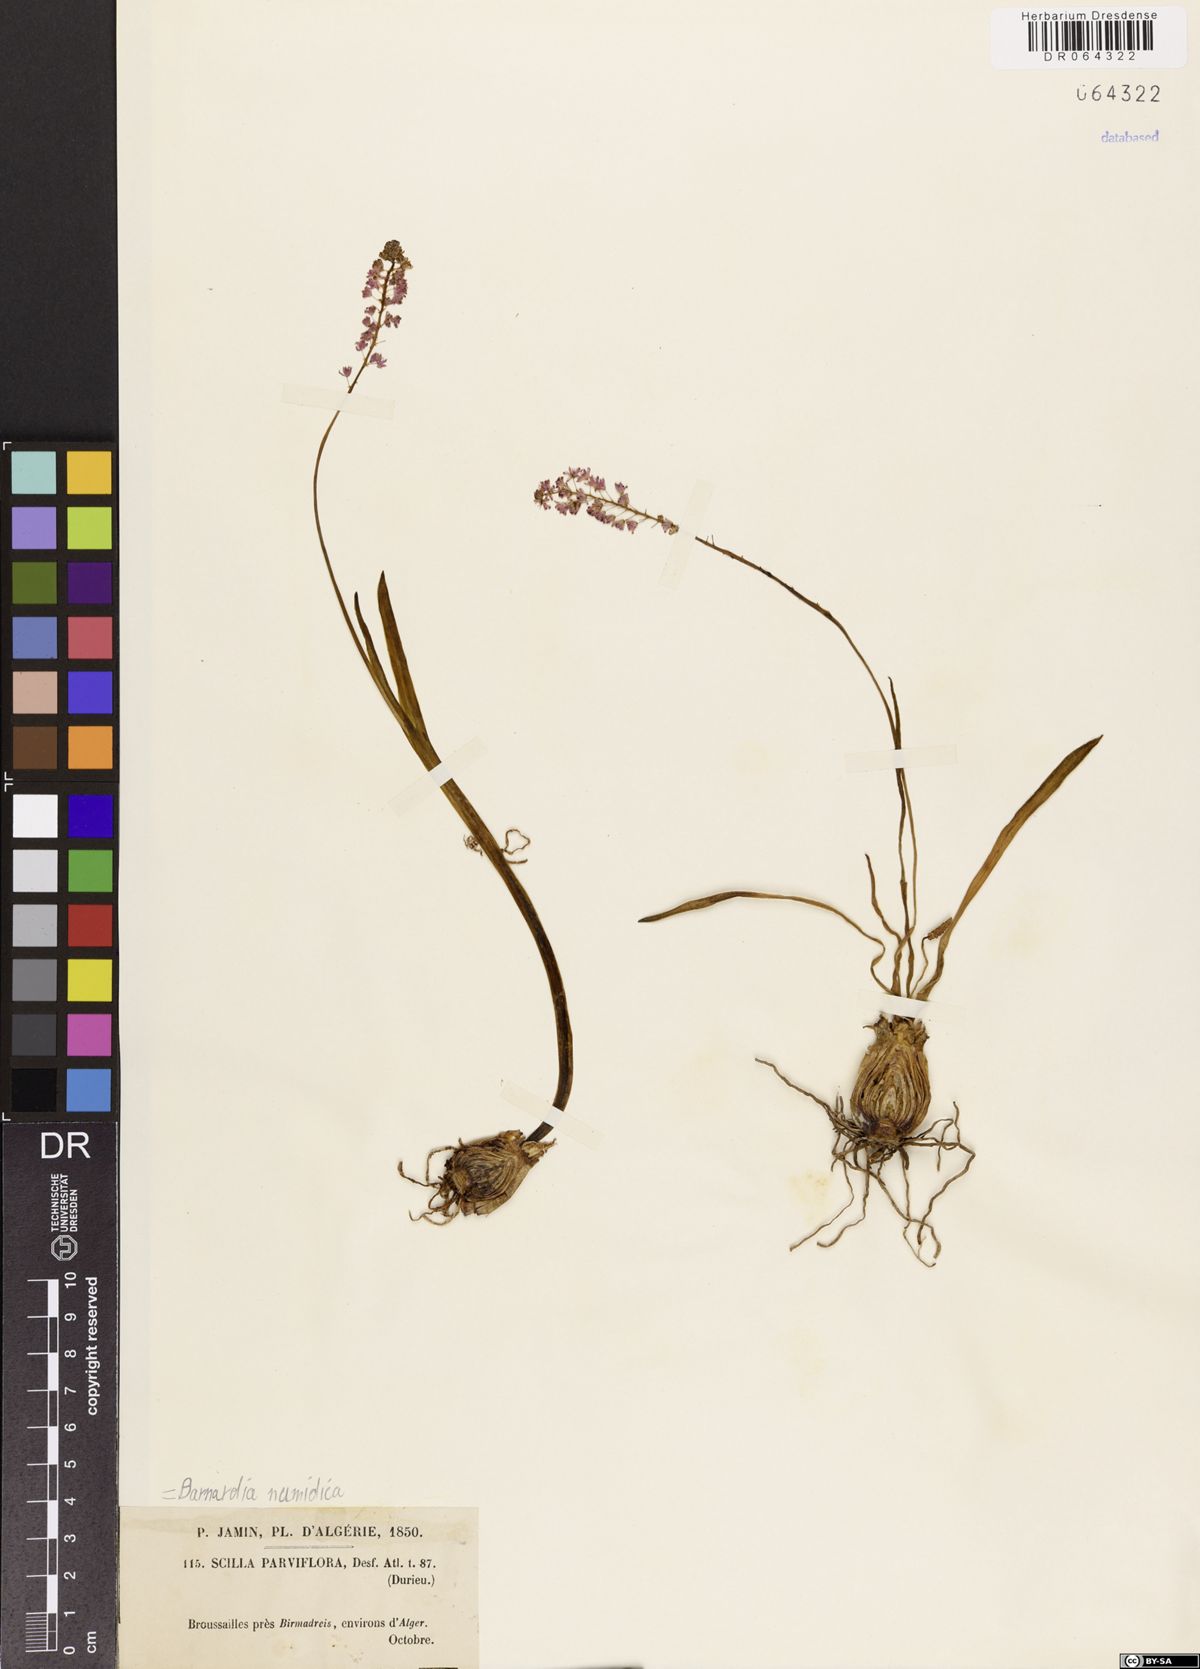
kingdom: Plantae
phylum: Tracheophyta
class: Liliopsida
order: Asparagales
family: Asparagaceae
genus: Barnardia
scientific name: Barnardia numidica
